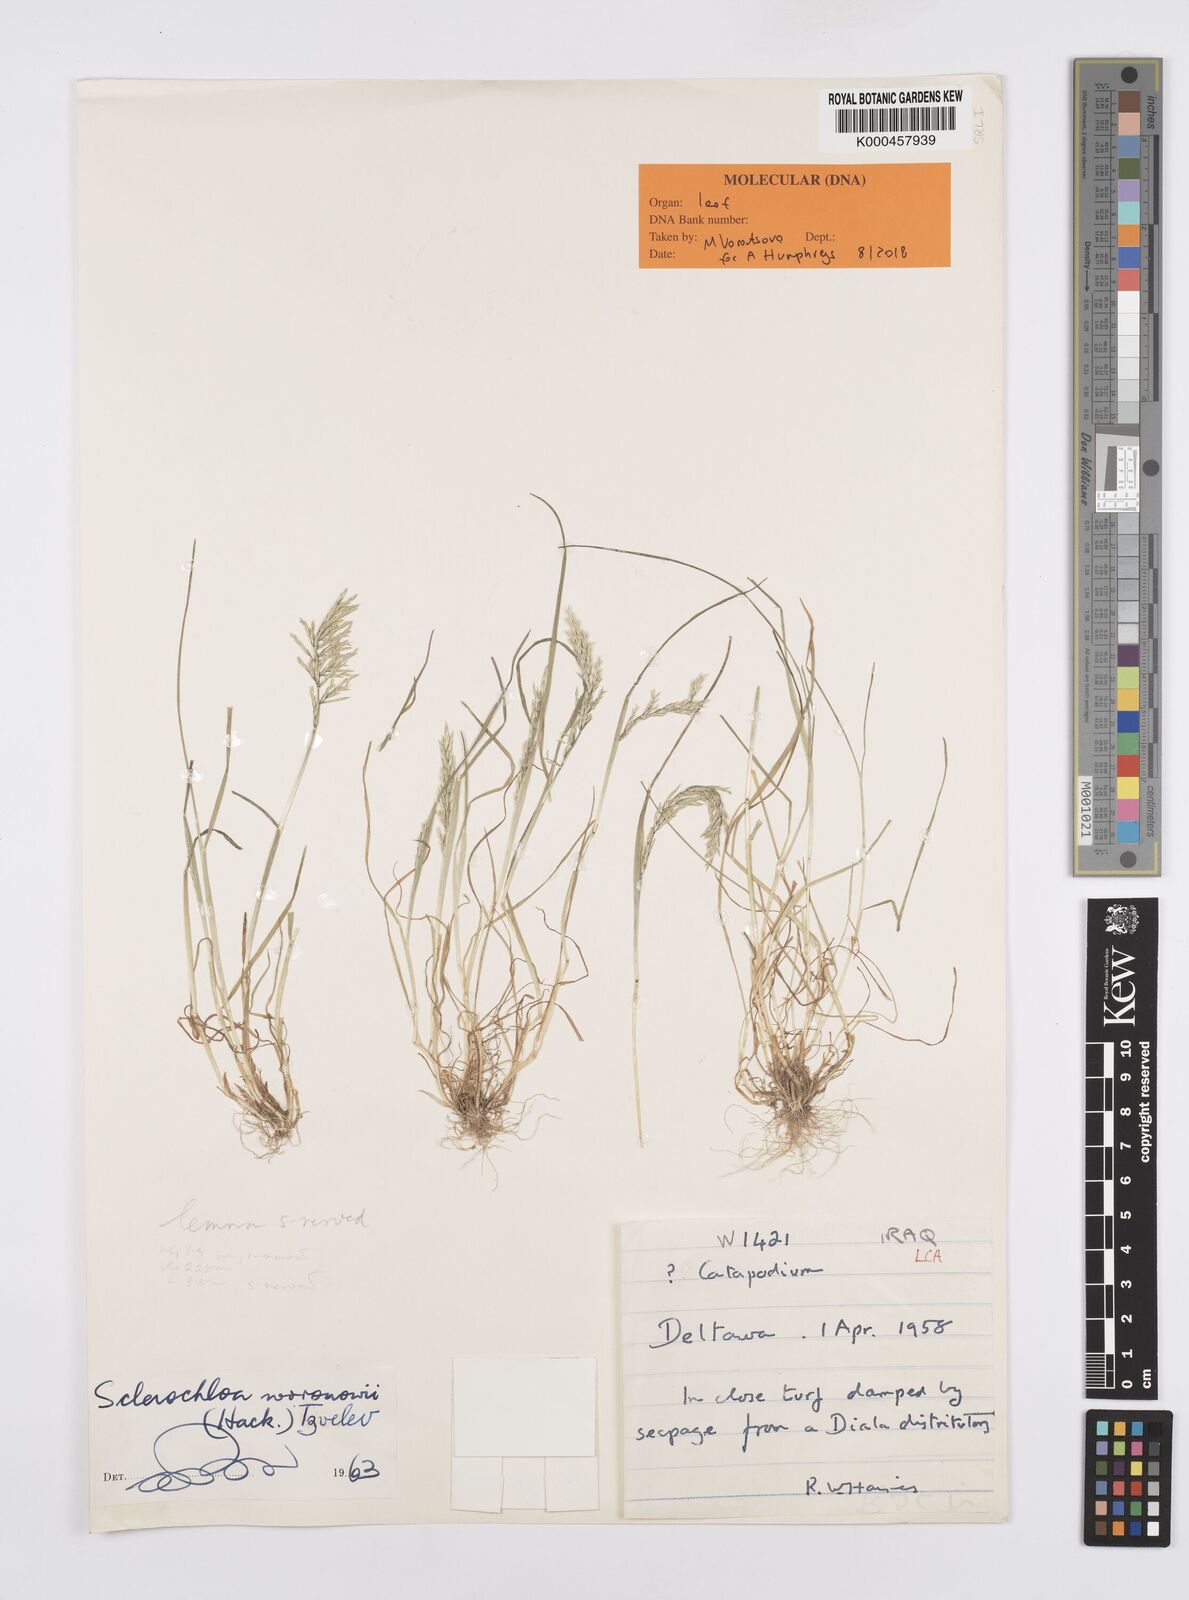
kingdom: Plantae
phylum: Tracheophyta
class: Liliopsida
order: Poales
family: Poaceae
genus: Sclerochloa
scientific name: Sclerochloa woronowii
